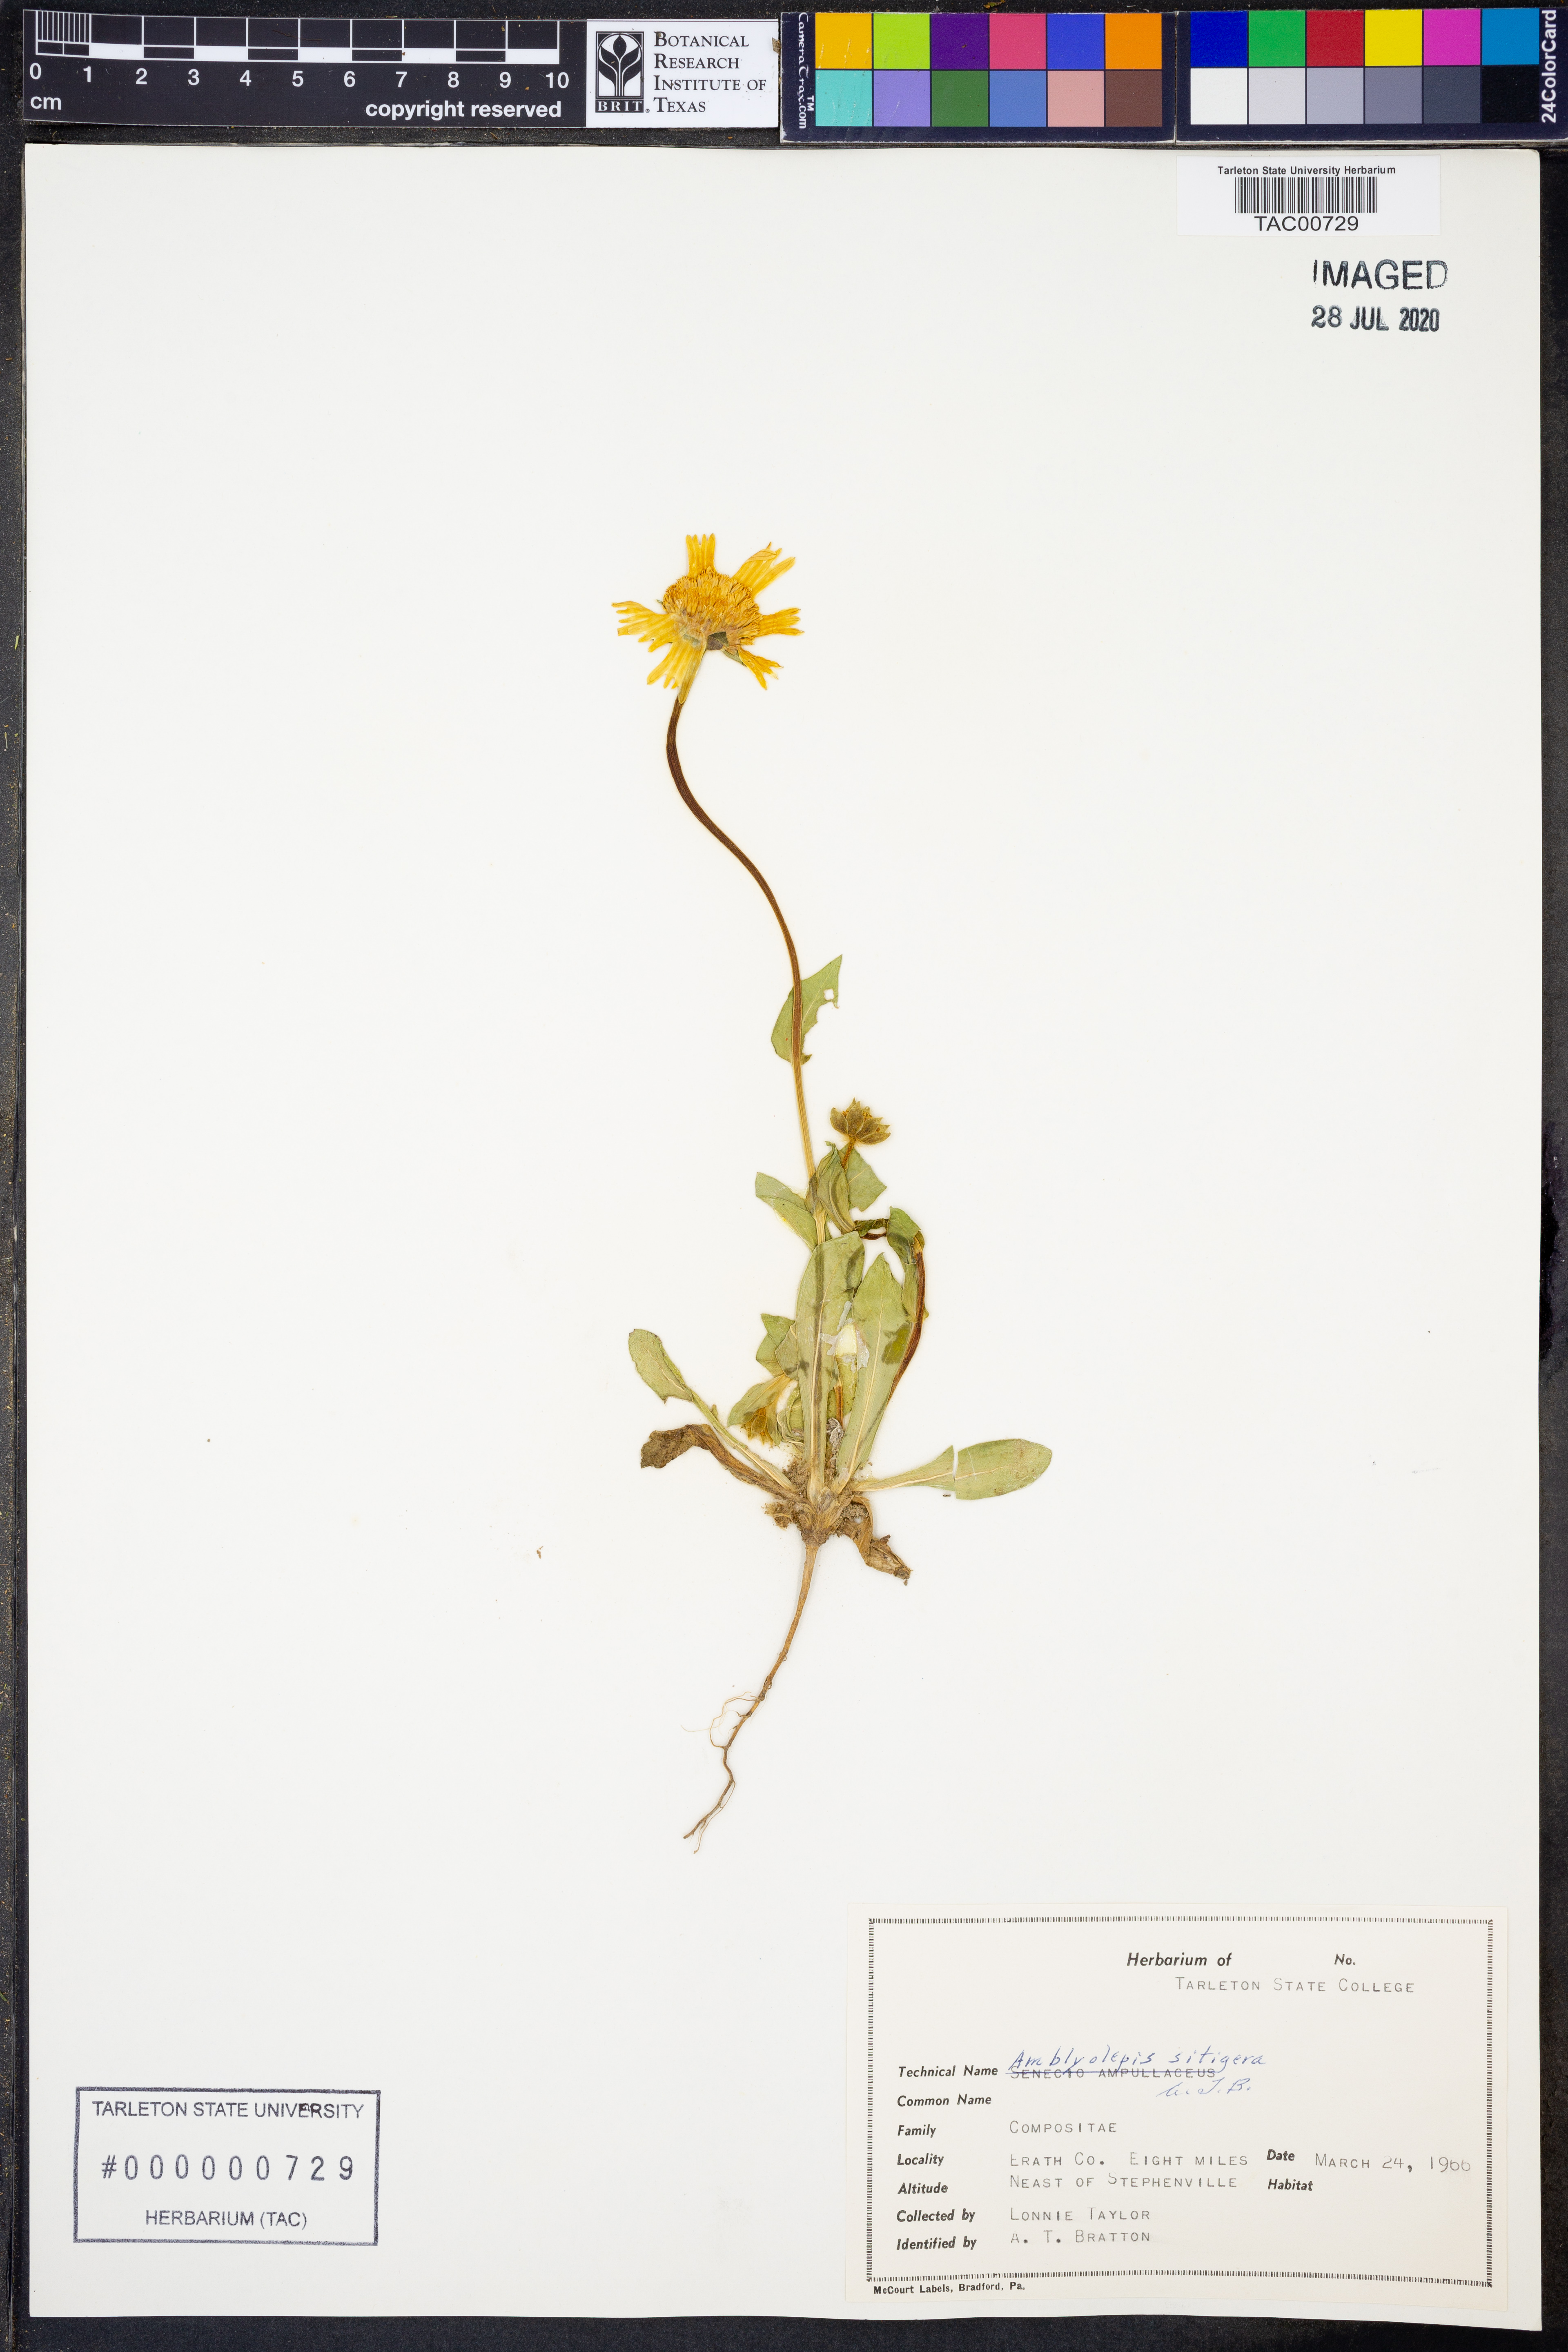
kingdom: Plantae
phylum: Tracheophyta
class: Magnoliopsida
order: Asterales
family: Asteraceae
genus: Amblyolepis
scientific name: Amblyolepis setigera
